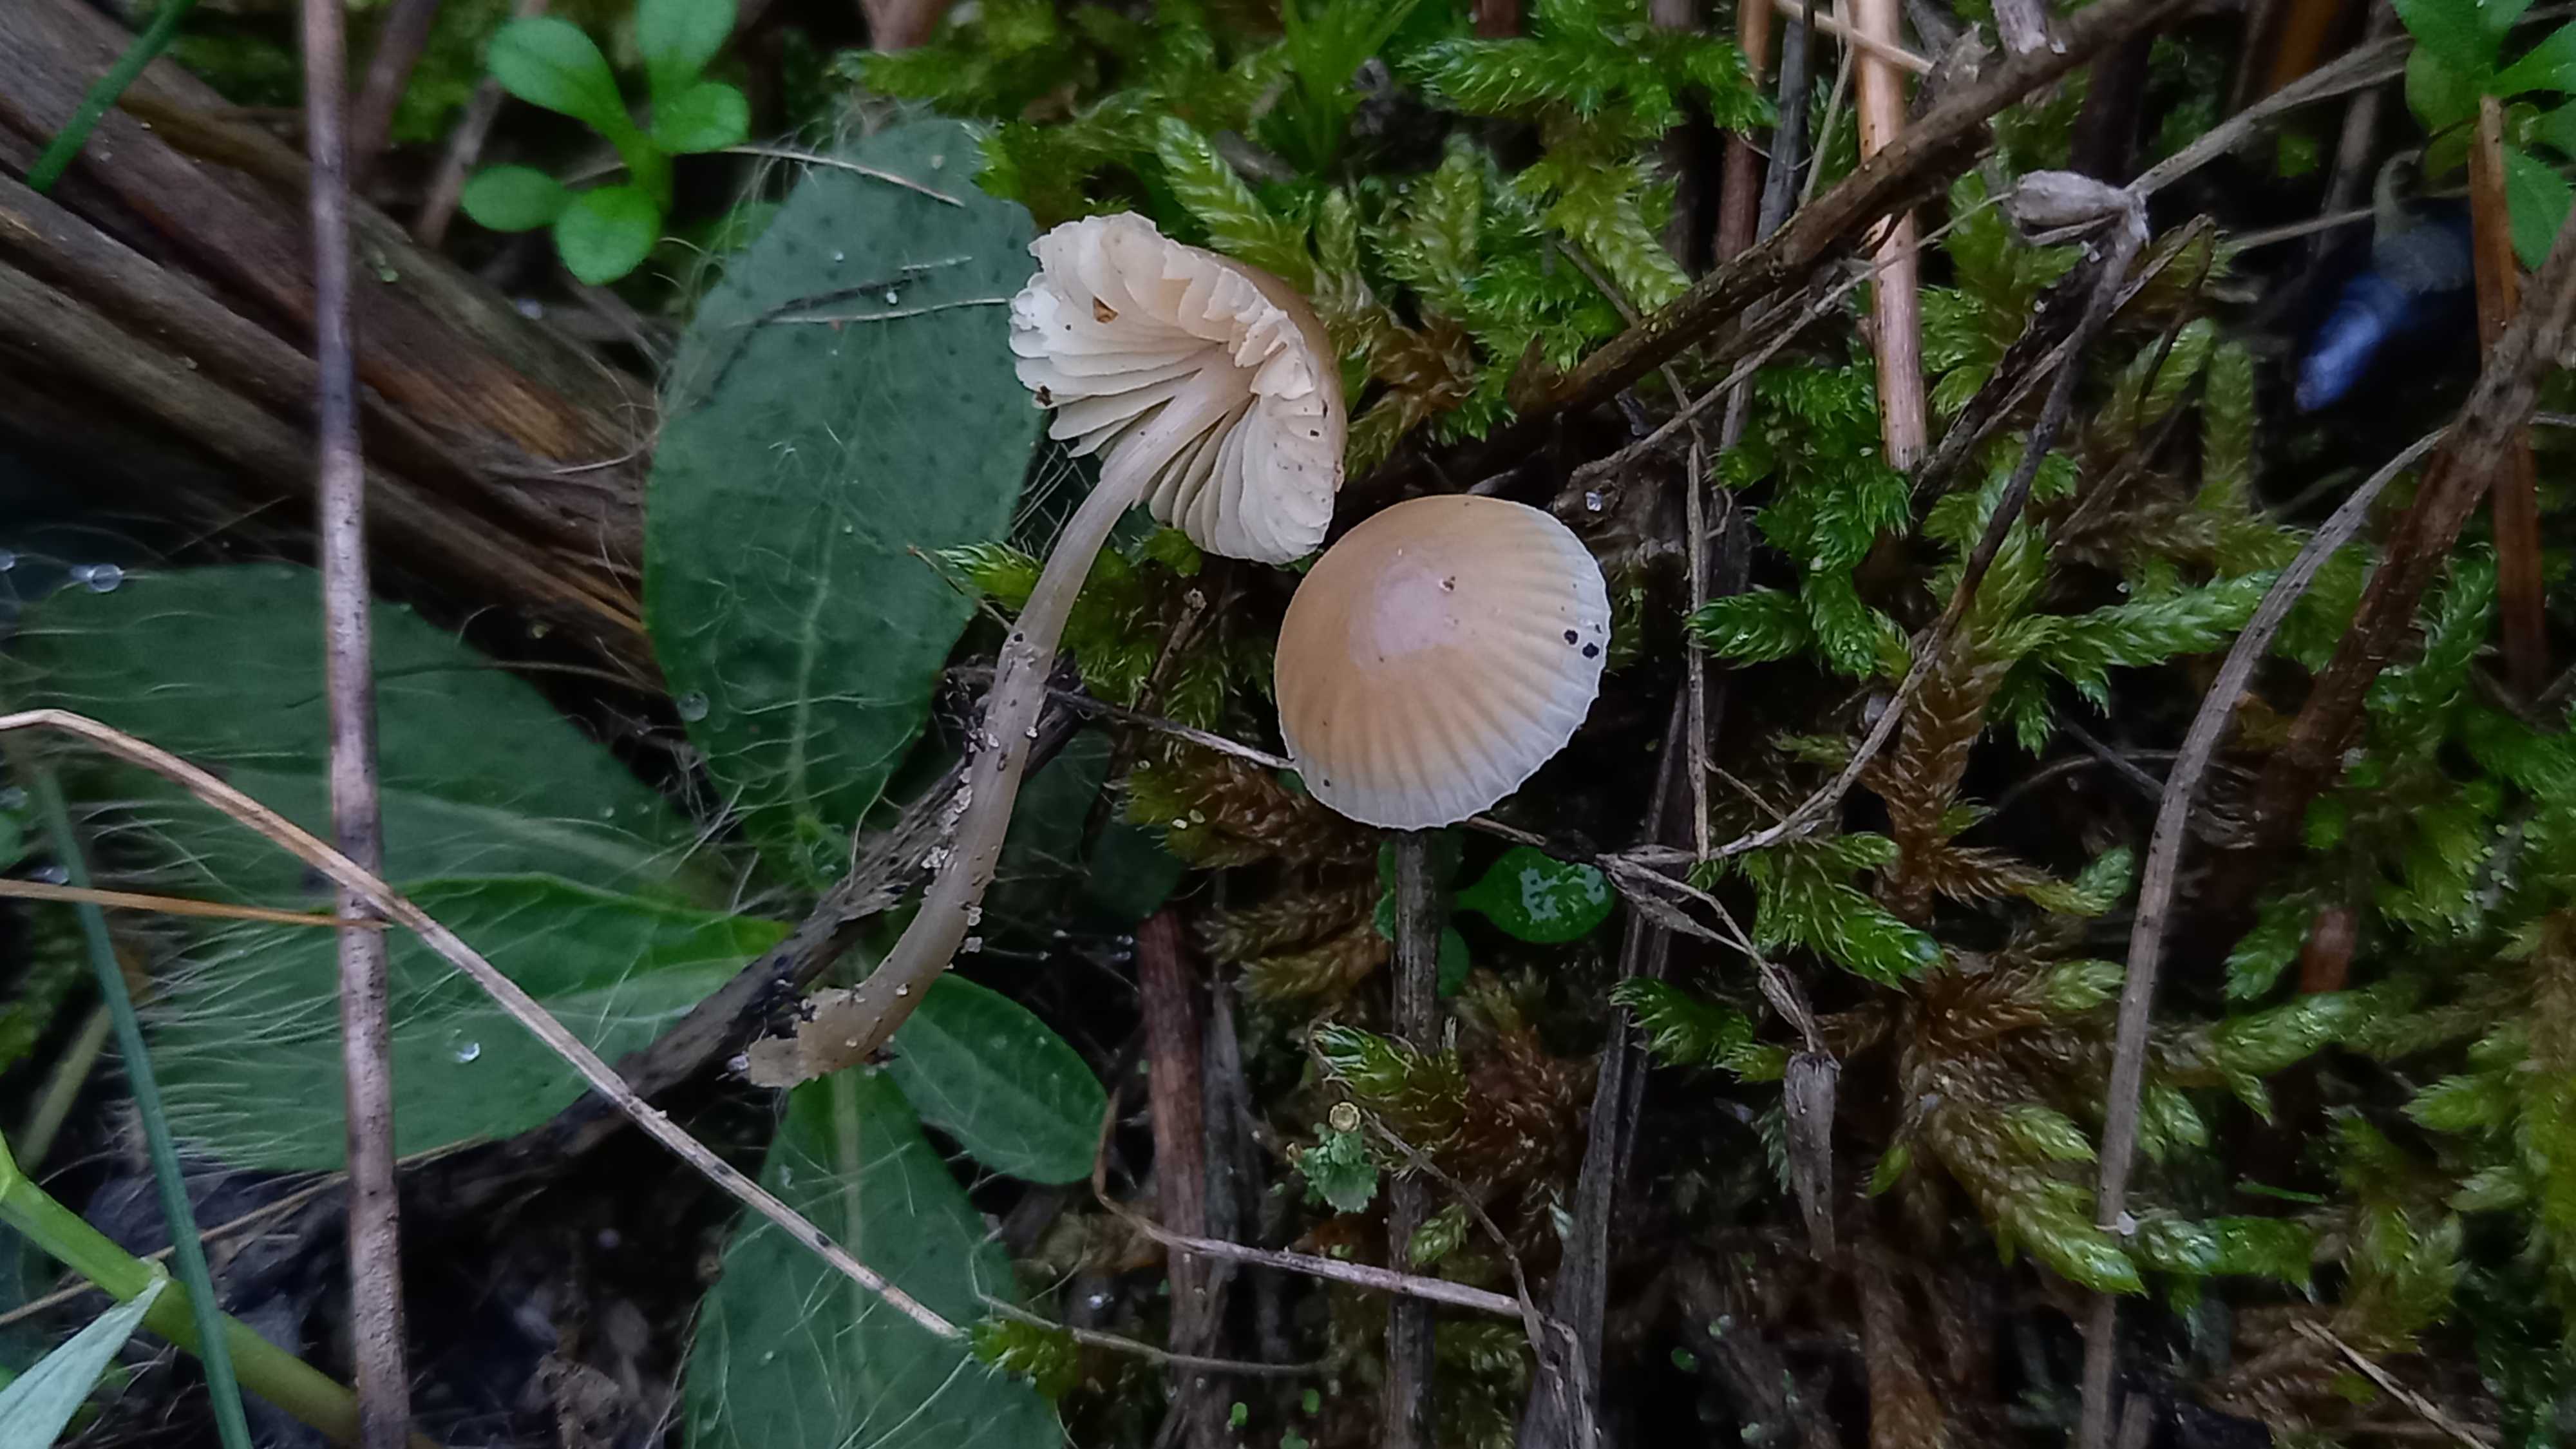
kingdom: Fungi
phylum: Basidiomycota
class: Agaricomycetes
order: Agaricales
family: Mycenaceae
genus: Mycena
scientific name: Mycena chlorantha
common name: klit-huesvamp
